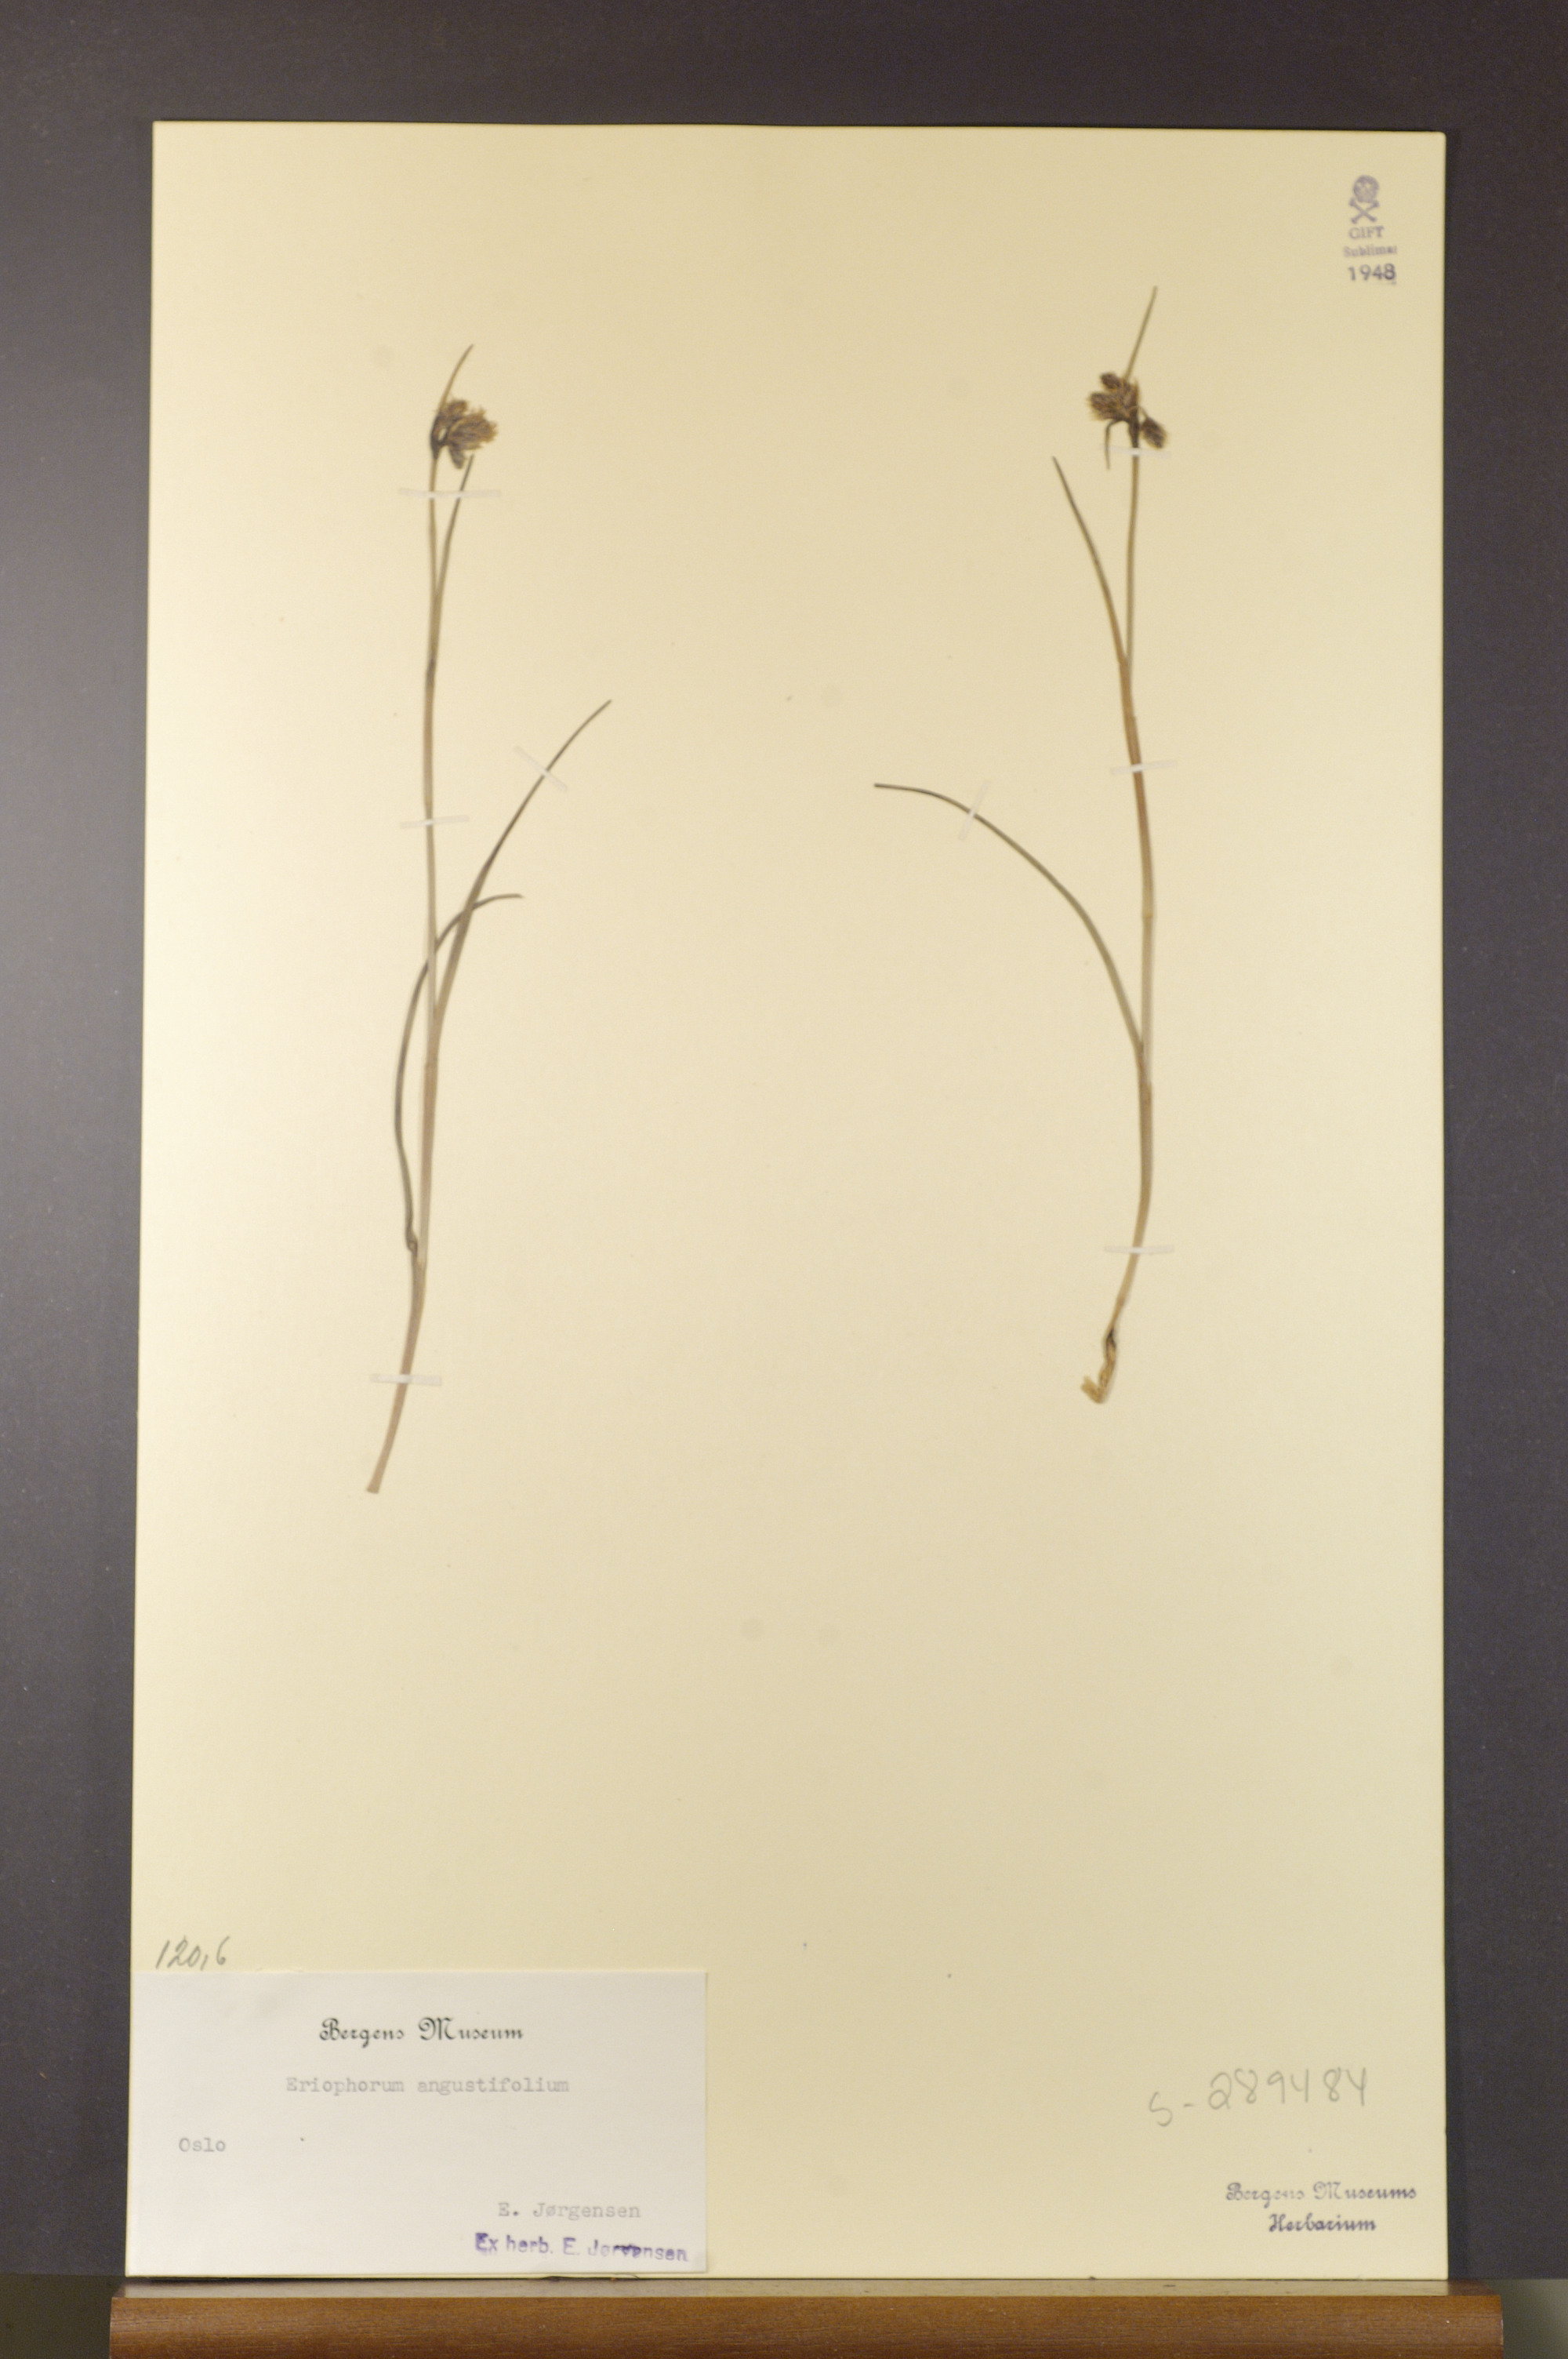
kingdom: Plantae
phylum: Tracheophyta
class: Liliopsida
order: Poales
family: Cyperaceae
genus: Eriophorum
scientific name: Eriophorum angustifolium
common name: Common cottongrass
